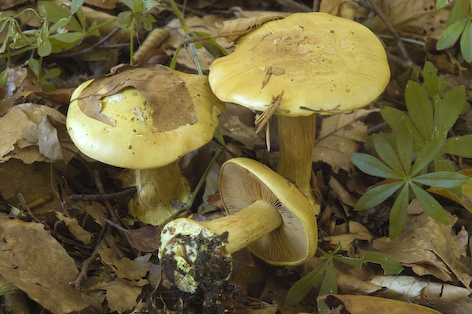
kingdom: Fungi
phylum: Basidiomycota
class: Agaricomycetes
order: Agaricales
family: Cortinariaceae
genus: Calonarius
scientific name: Calonarius fulvocitrinus
